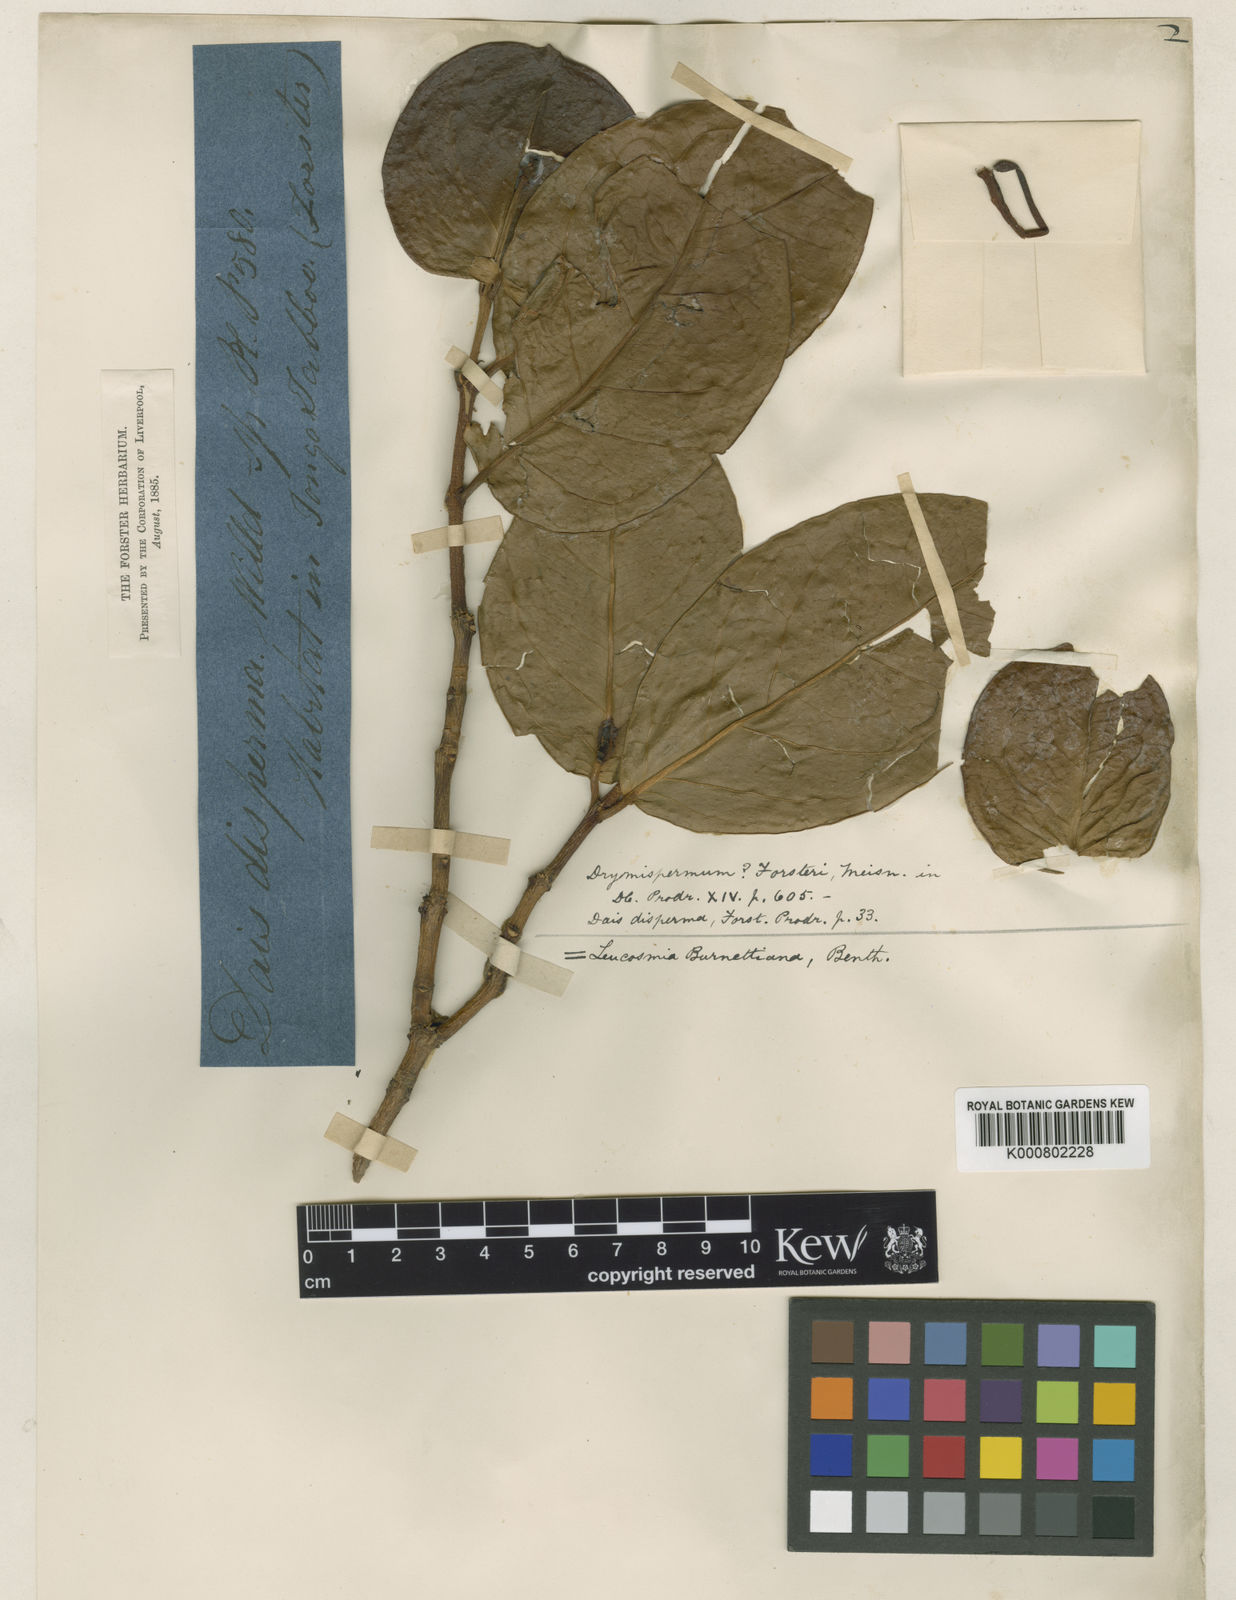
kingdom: Plantae
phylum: Tracheophyta
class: Magnoliopsida
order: Malvales
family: Thymelaeaceae
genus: Phaleria
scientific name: Phaleria disperma
